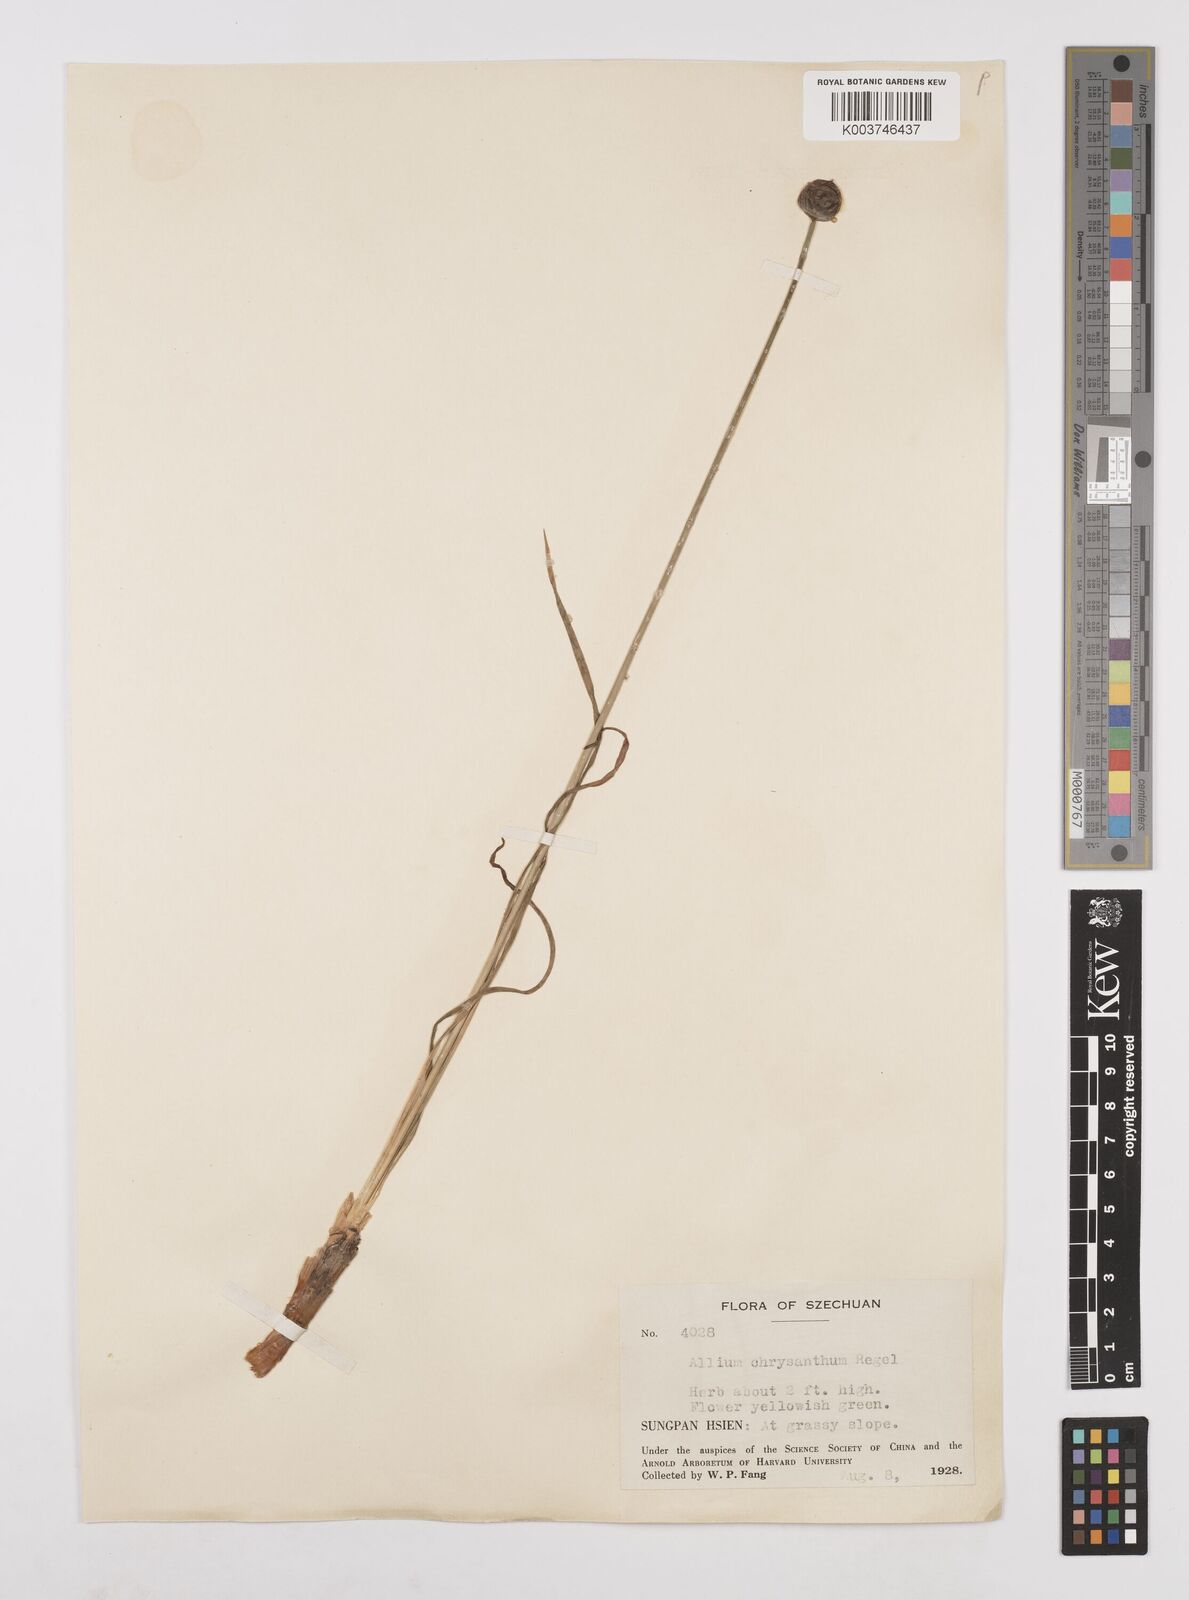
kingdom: Plantae
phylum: Tracheophyta
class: Liliopsida
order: Asparagales
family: Amaryllidaceae
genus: Allium
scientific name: Allium chrysanthum
